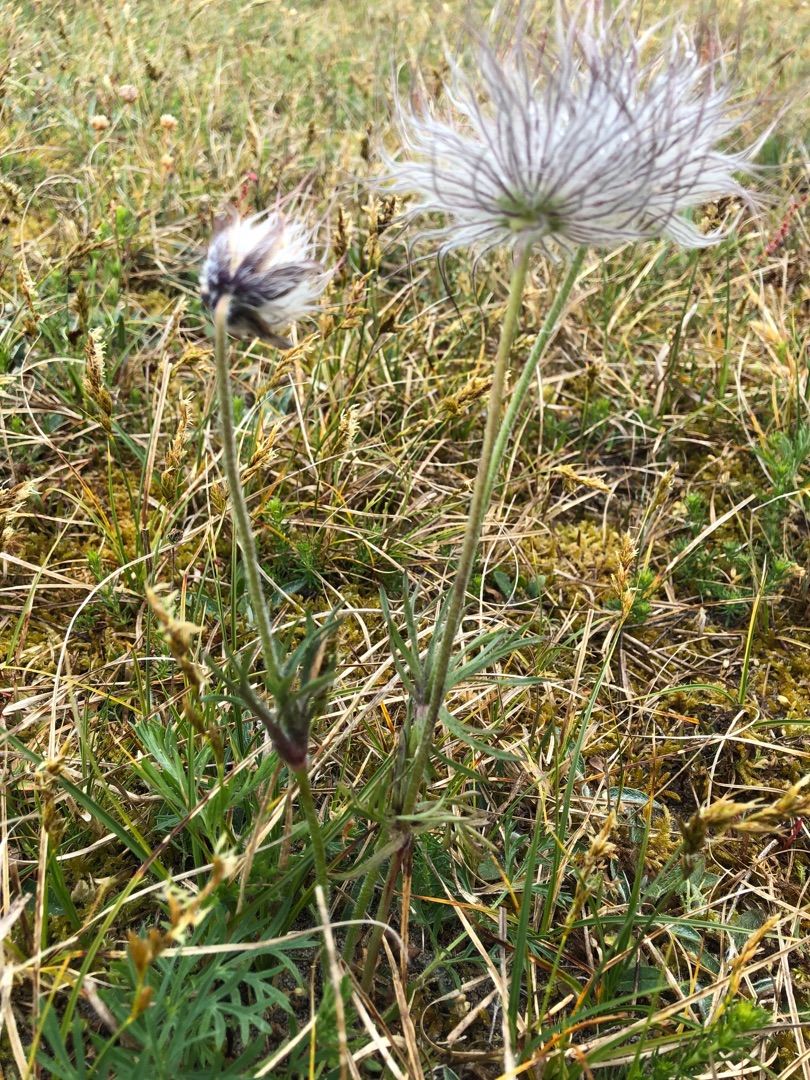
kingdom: Plantae
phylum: Tracheophyta
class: Magnoliopsida
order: Ranunculales
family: Ranunculaceae
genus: Pulsatilla
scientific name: Pulsatilla
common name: Kobjældeslægten
